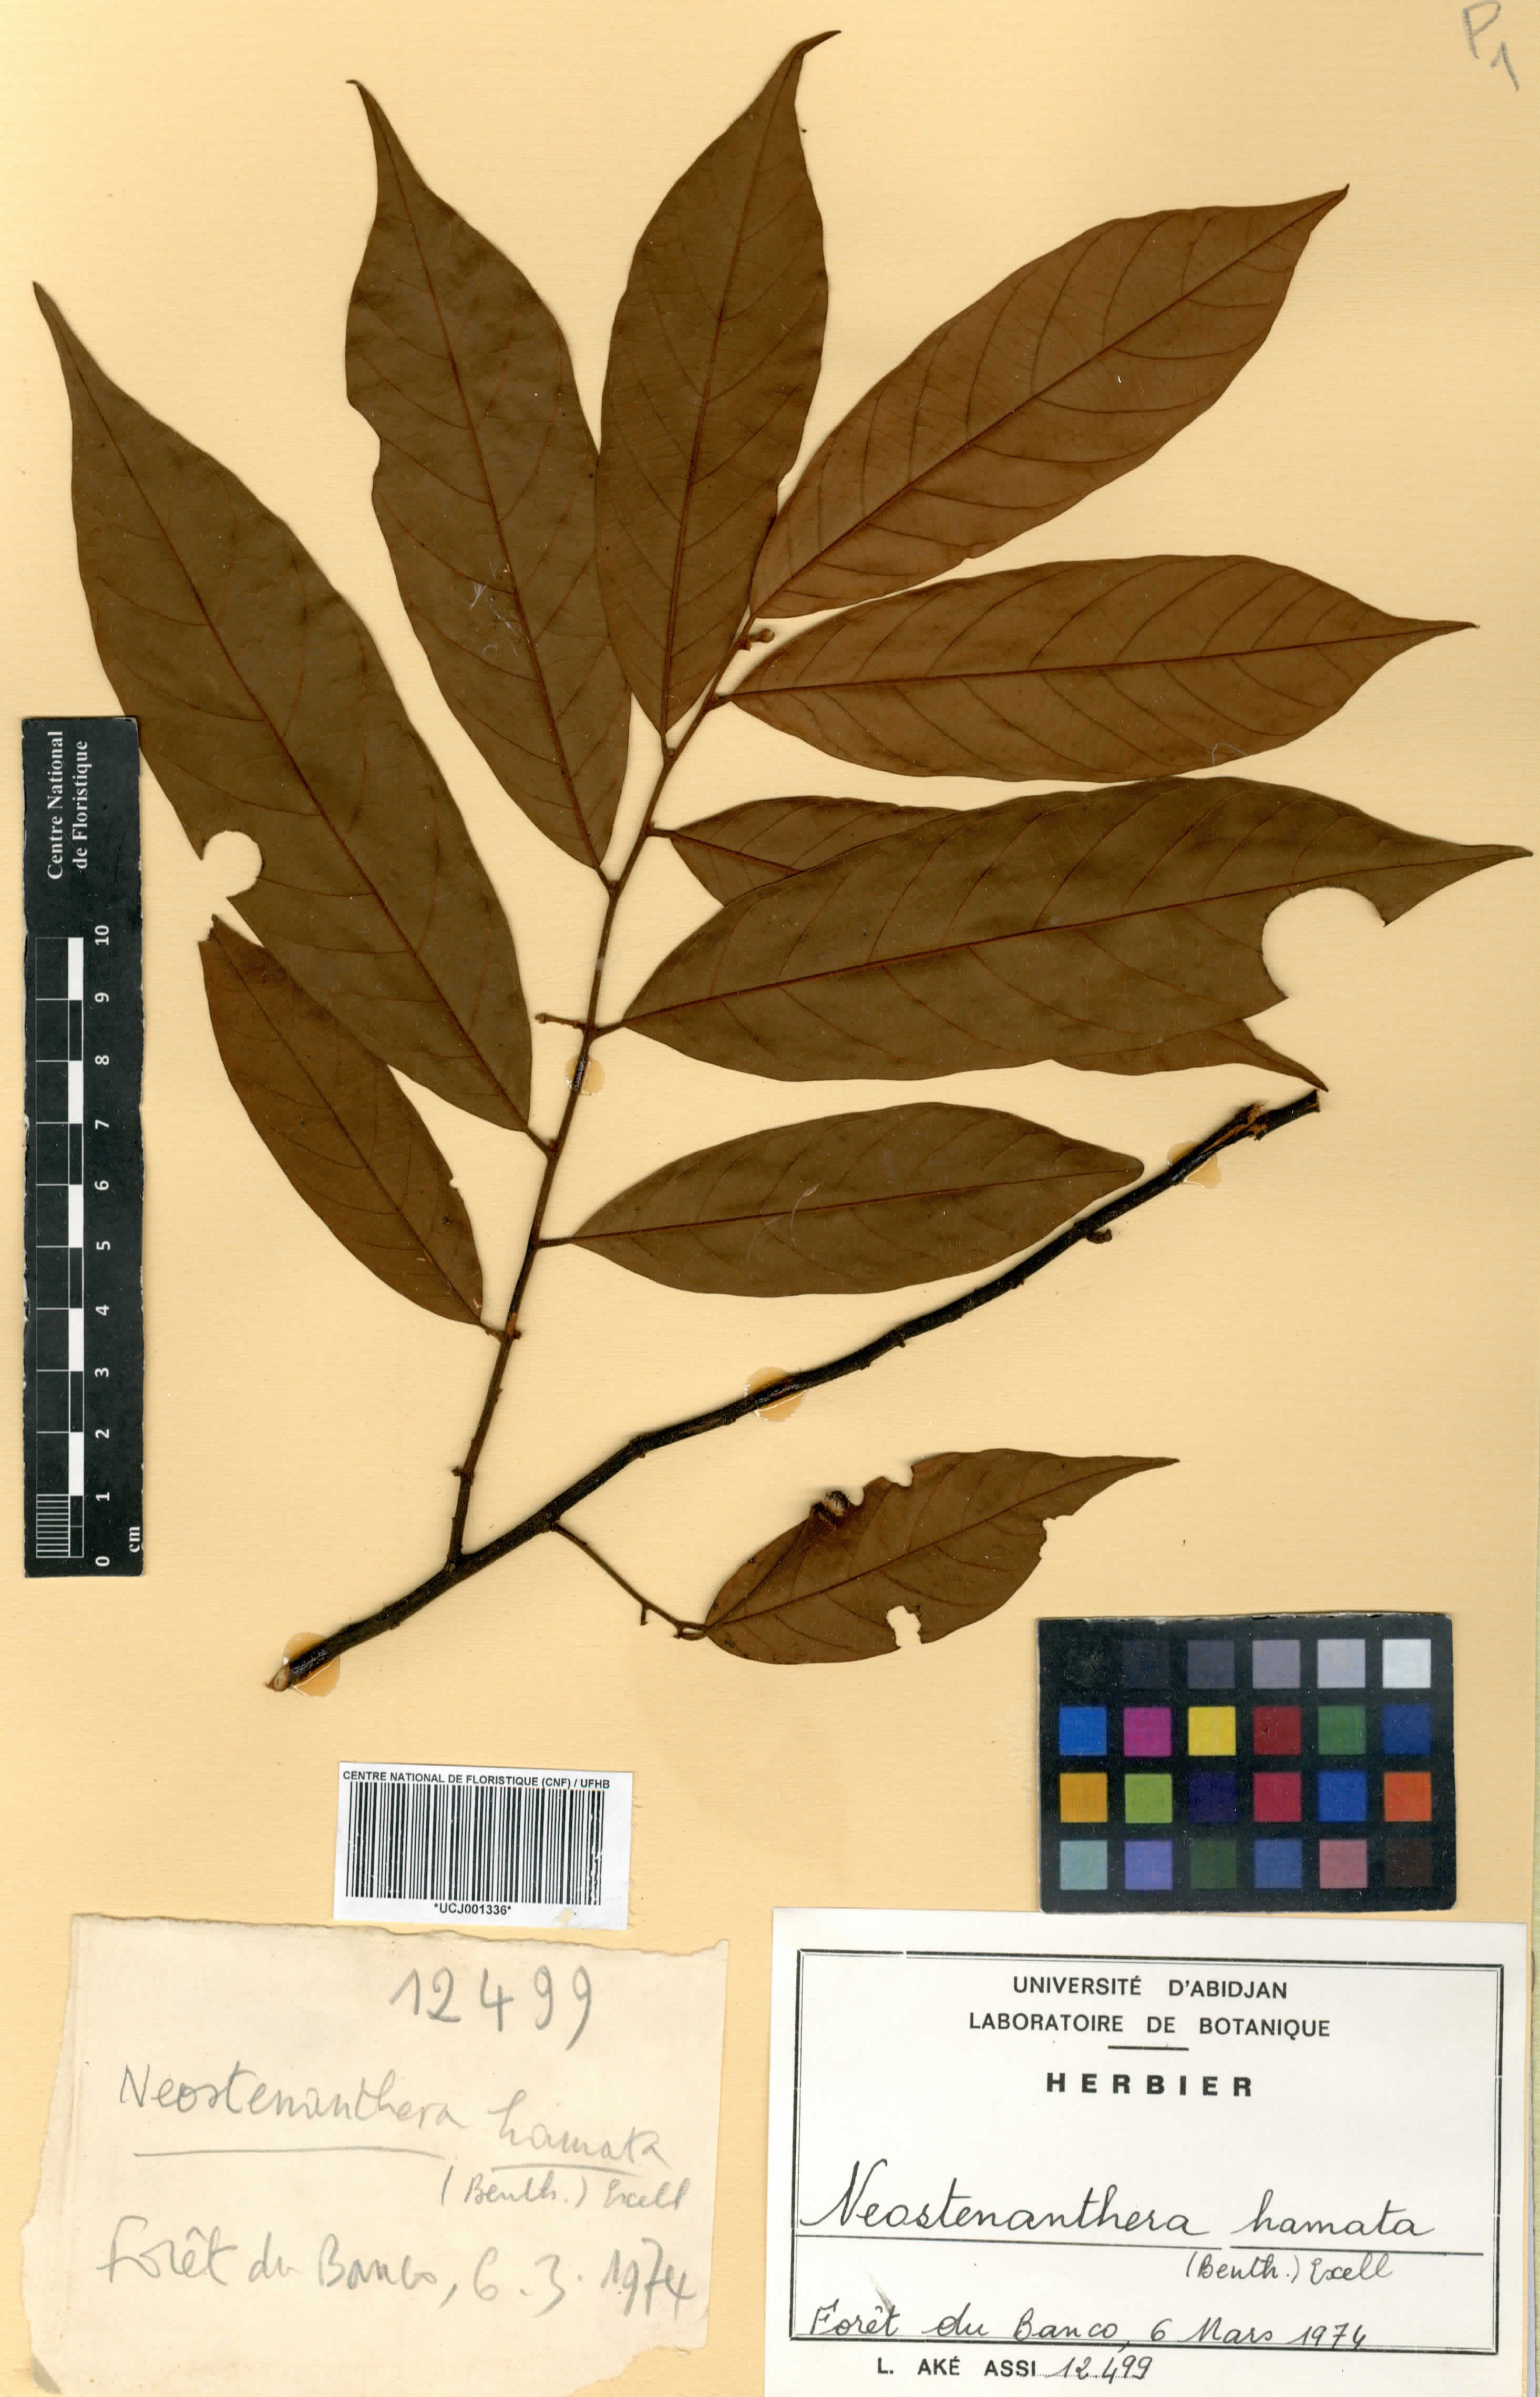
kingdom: Plantae
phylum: Tracheophyta
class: Magnoliopsida
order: Magnoliales
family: Annonaceae
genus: Neostenanthera
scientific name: Neostenanthera hamata
